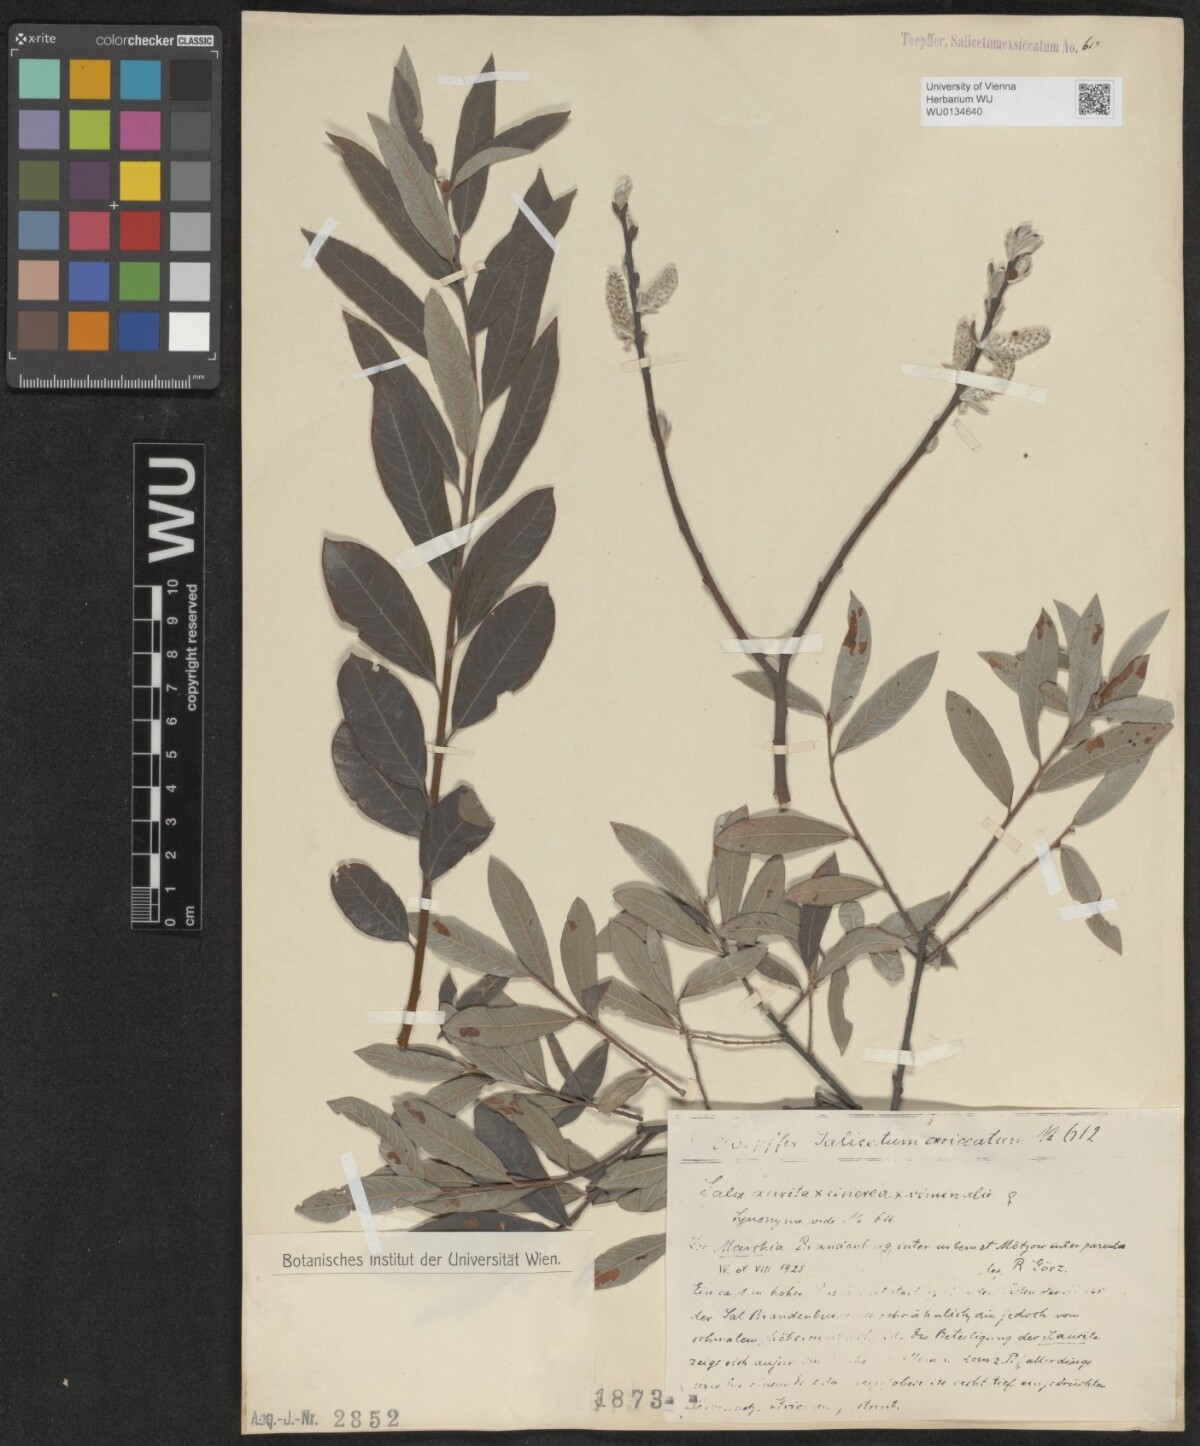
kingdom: Plantae
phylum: Tracheophyta
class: Magnoliopsida
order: Malpighiales
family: Salicaceae
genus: Salix
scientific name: Salix
